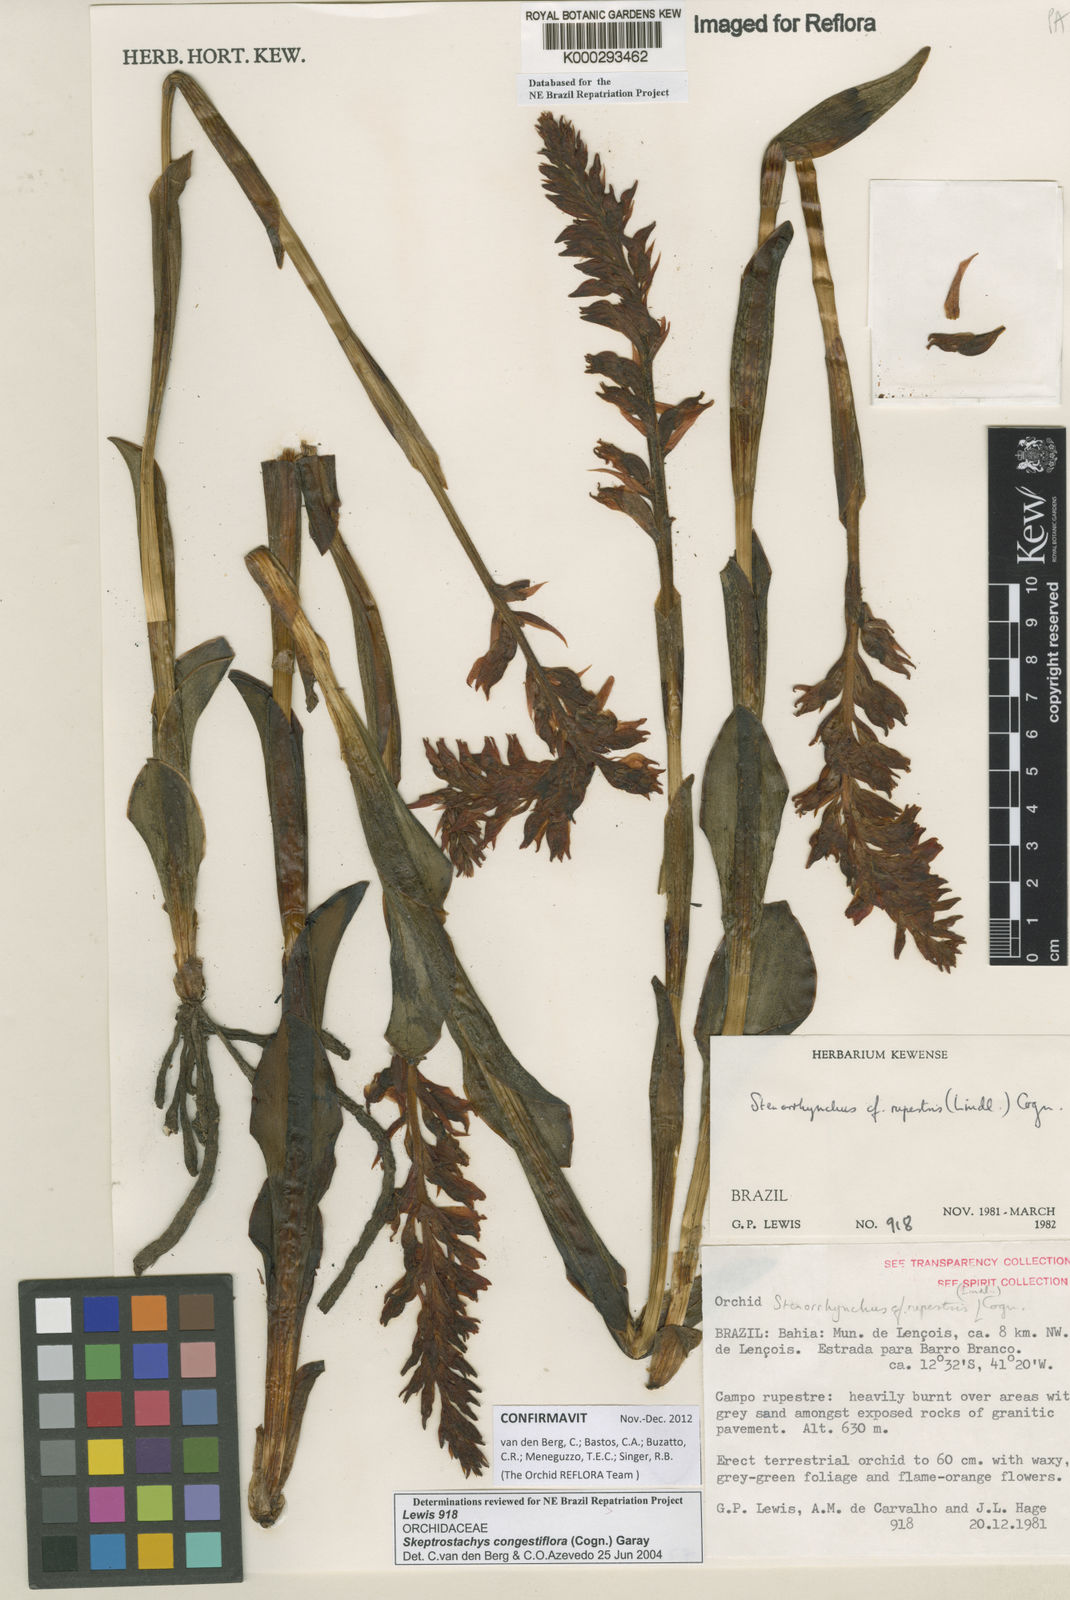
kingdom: Plantae
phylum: Tracheophyta
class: Liliopsida
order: Asparagales
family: Orchidaceae
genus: Skeptrostachys
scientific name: Skeptrostachys congestiflora
